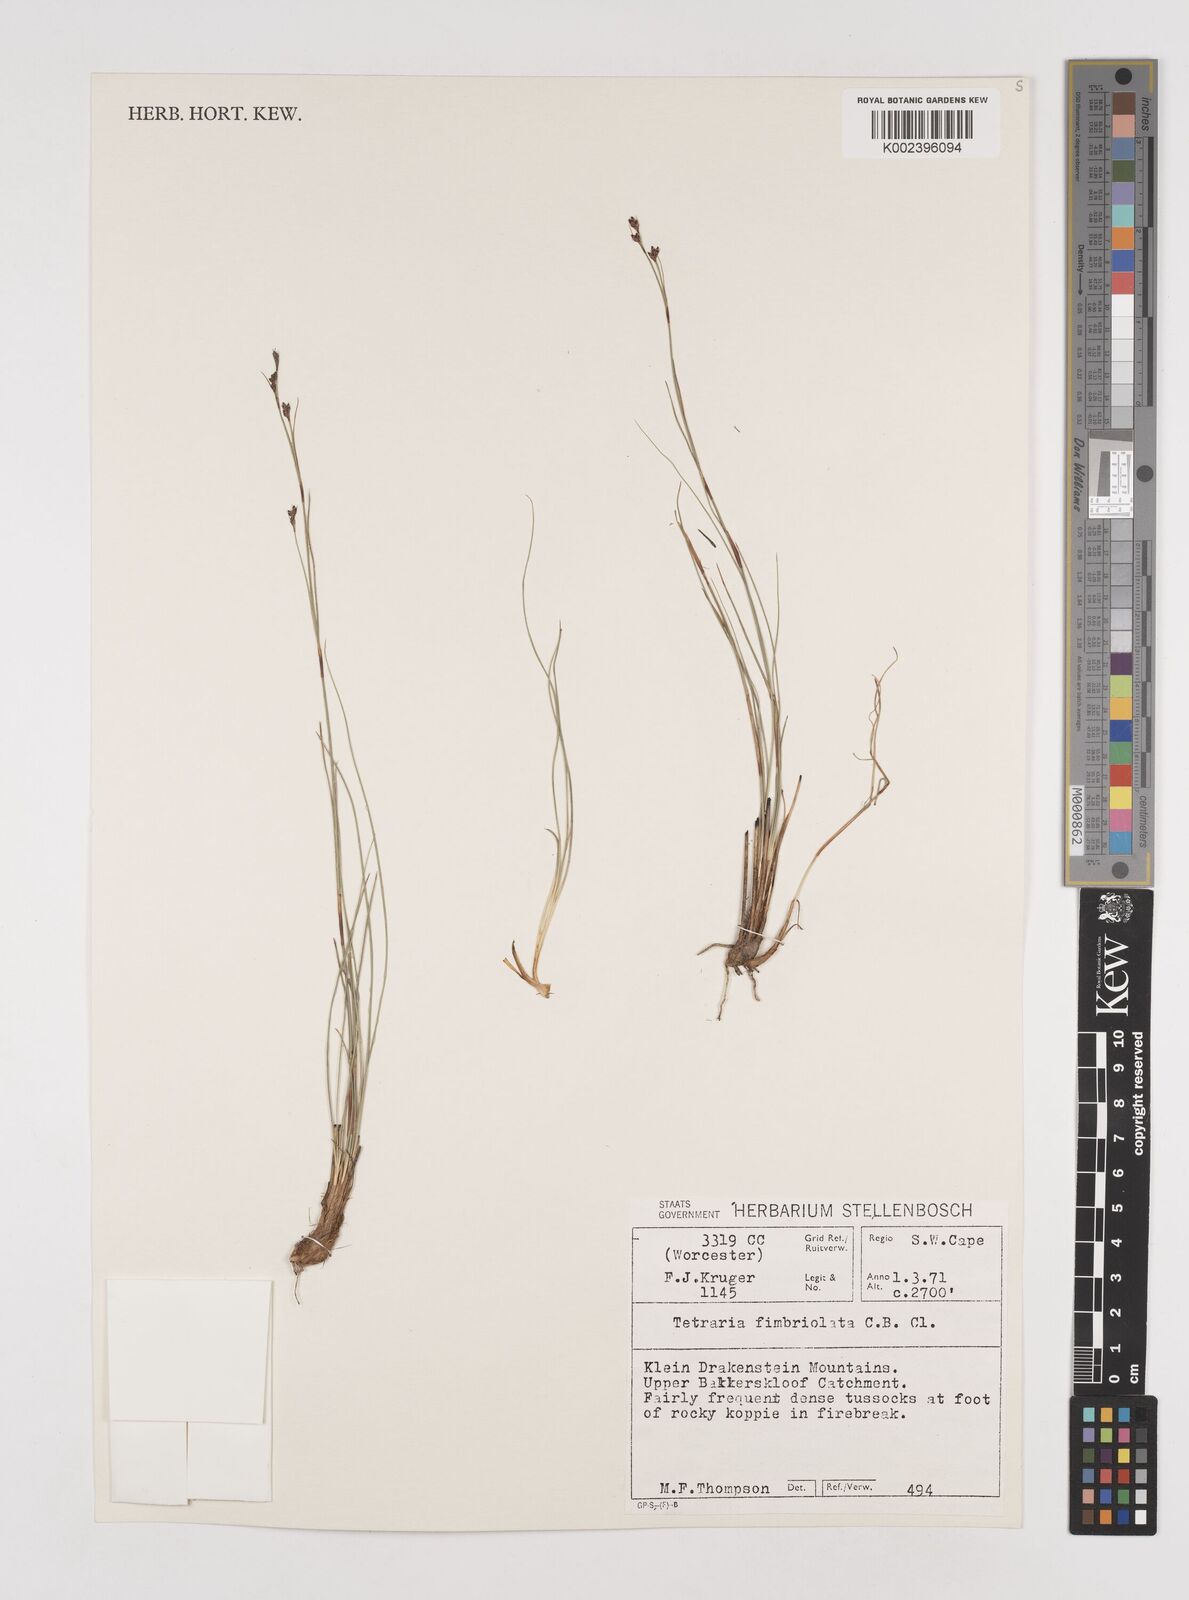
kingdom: Plantae
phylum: Tracheophyta
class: Liliopsida
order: Poales
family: Cyperaceae
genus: Tetraria
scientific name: Tetraria fimbriolata
